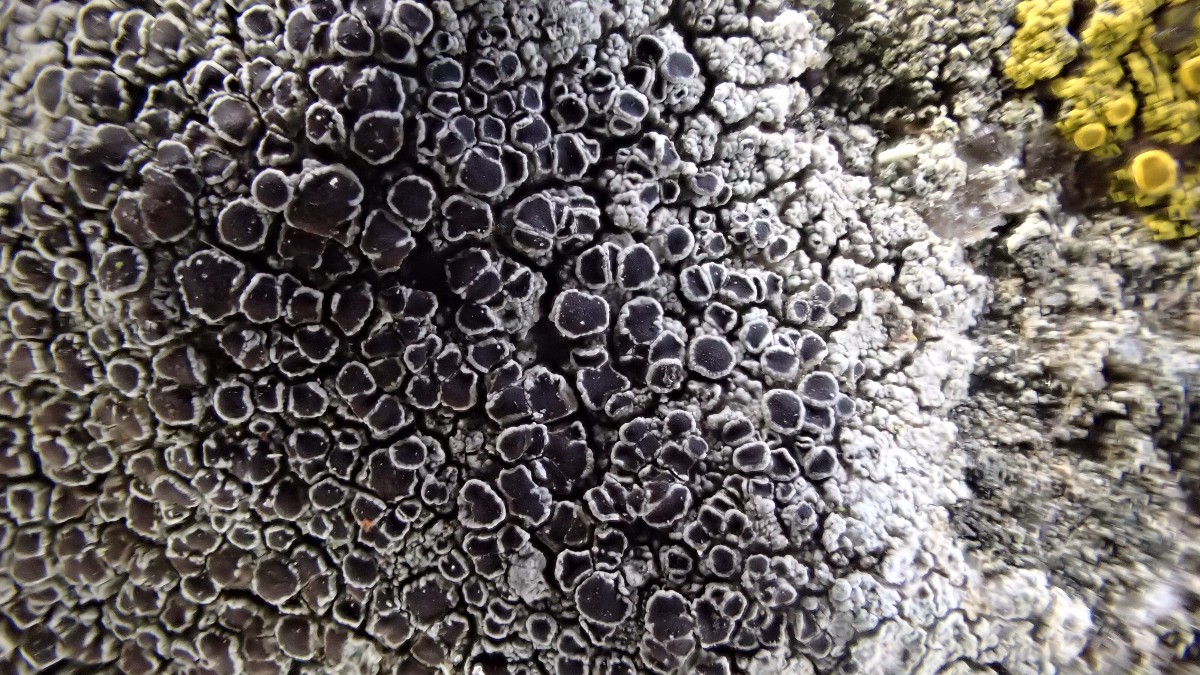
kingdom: Fungi
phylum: Ascomycota
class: Lecanoromycetes
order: Lecanorales
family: Lecanoraceae
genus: Lecanora
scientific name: Lecanora gangaleoides
